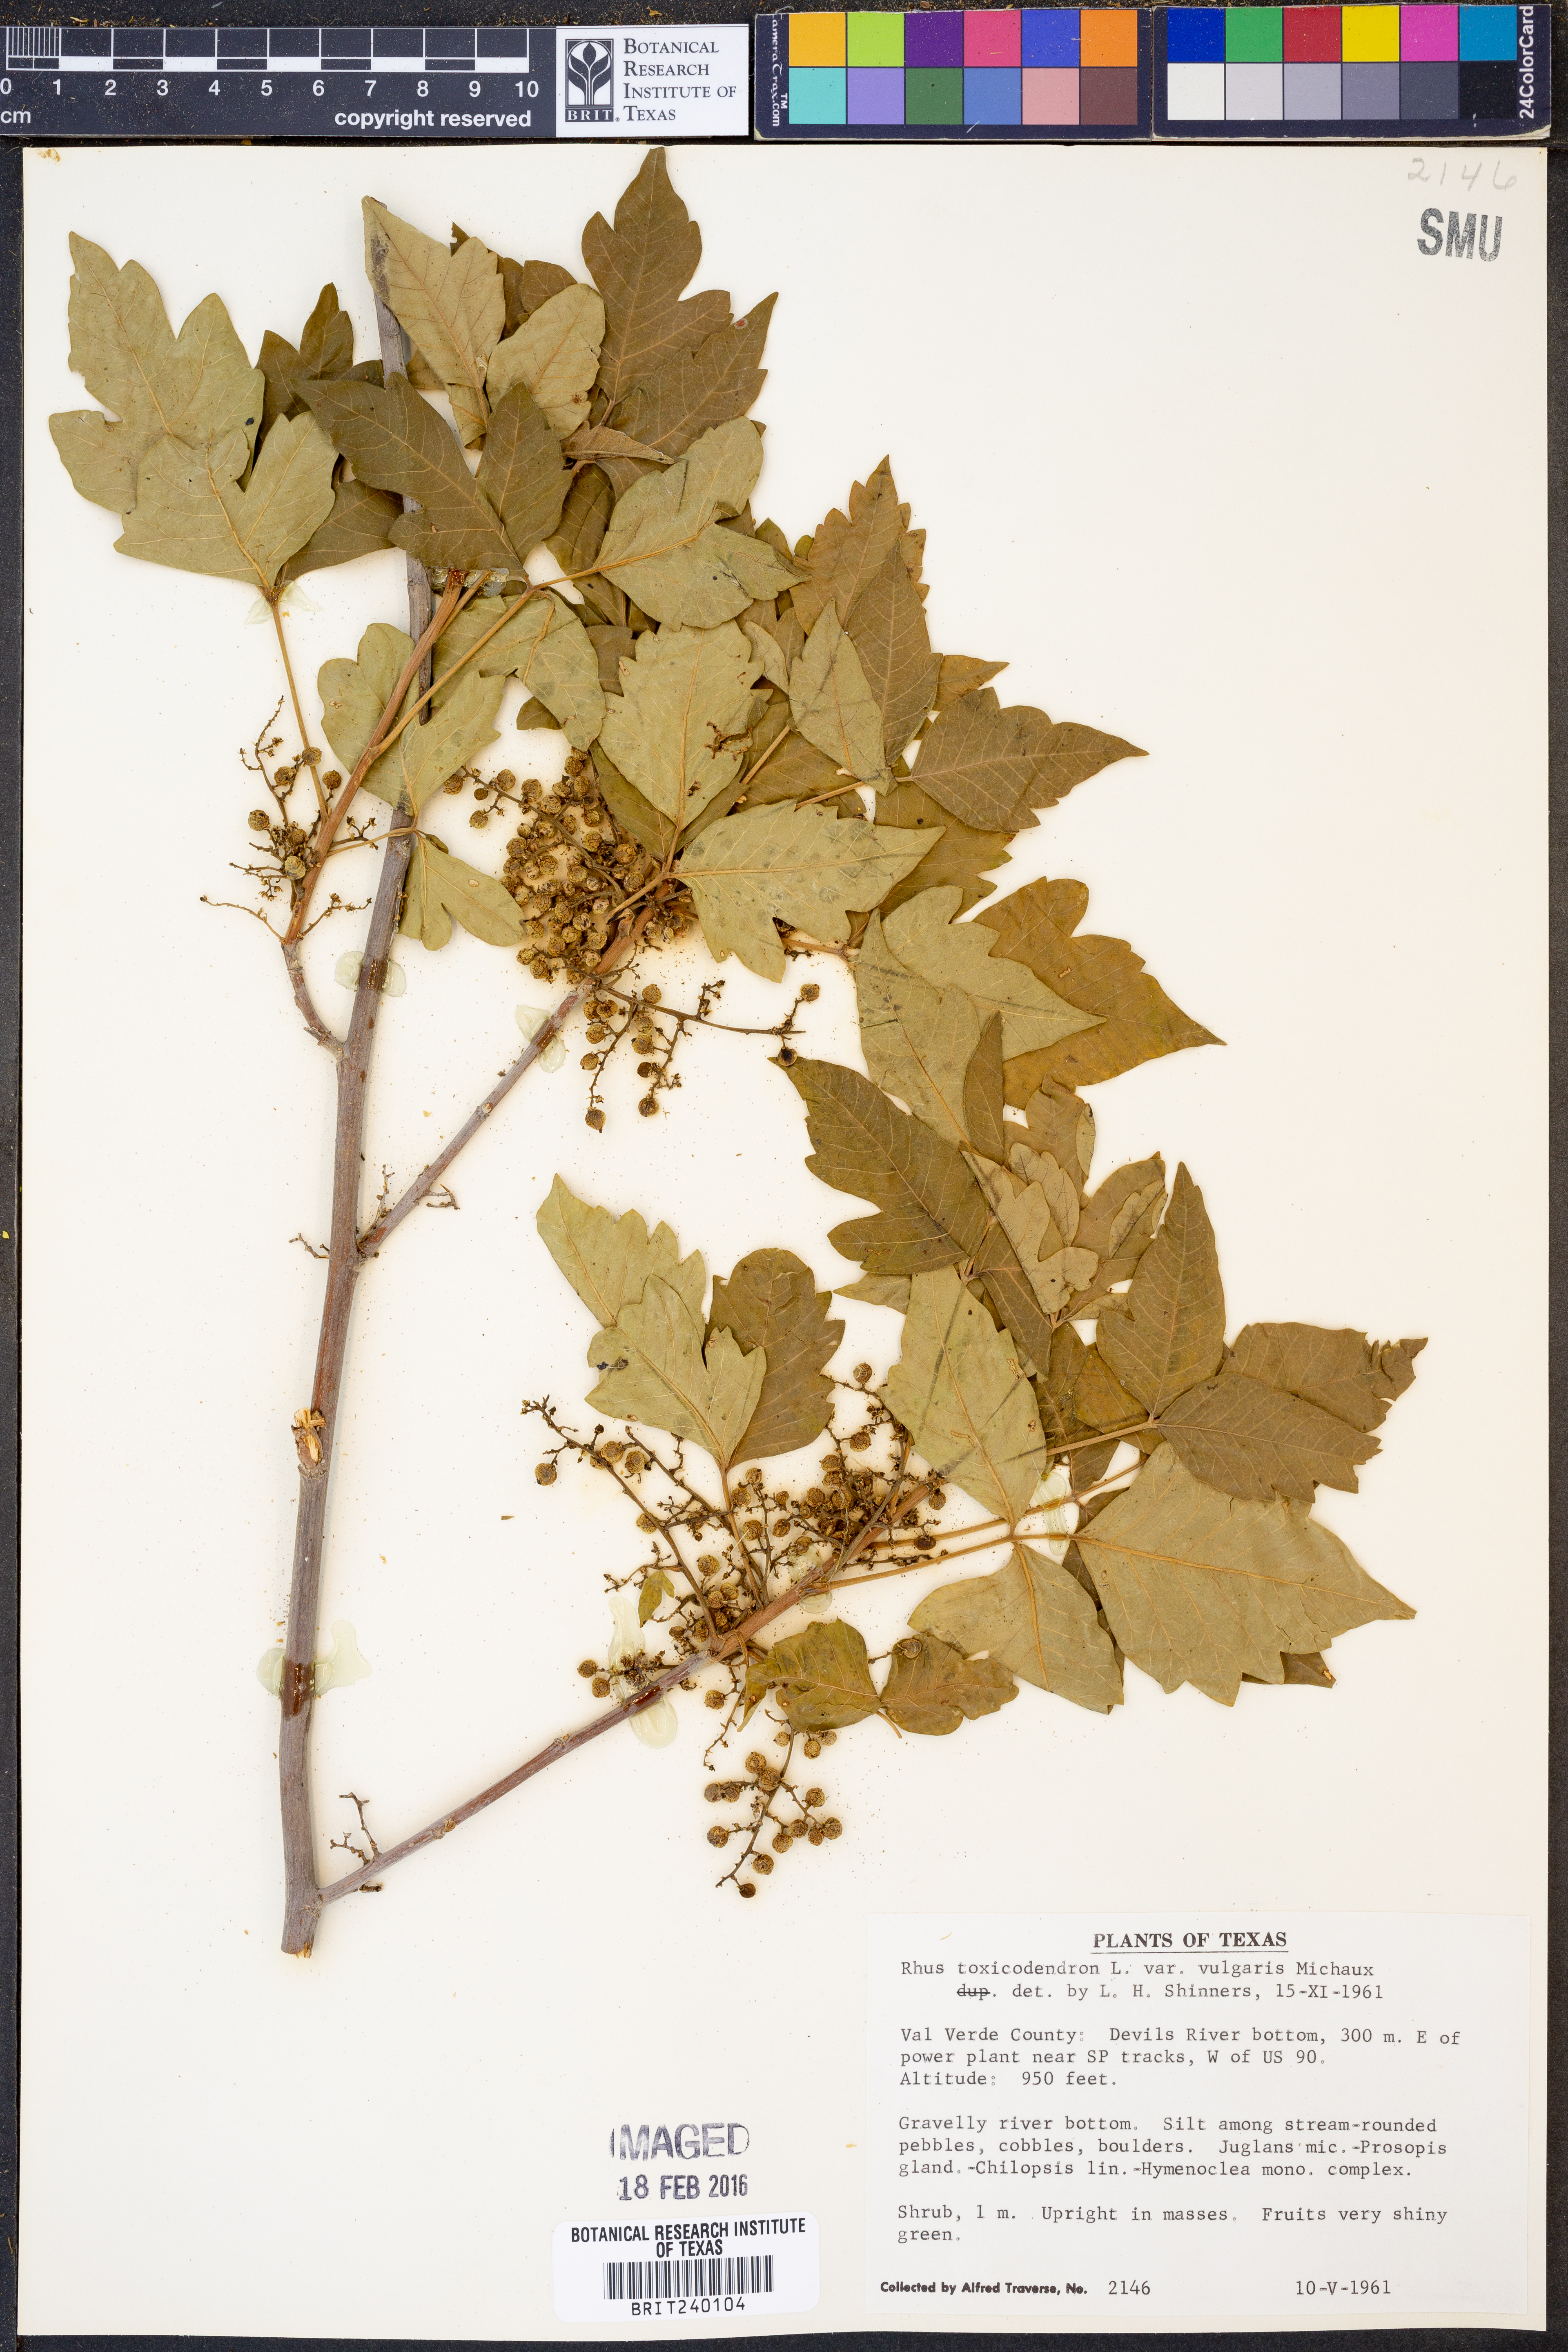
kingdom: Plantae
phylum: Tracheophyta
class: Magnoliopsida
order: Sapindales
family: Anacardiaceae
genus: Toxicodendron
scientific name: Toxicodendron rydbergii
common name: Rydberg's poison-ivy
